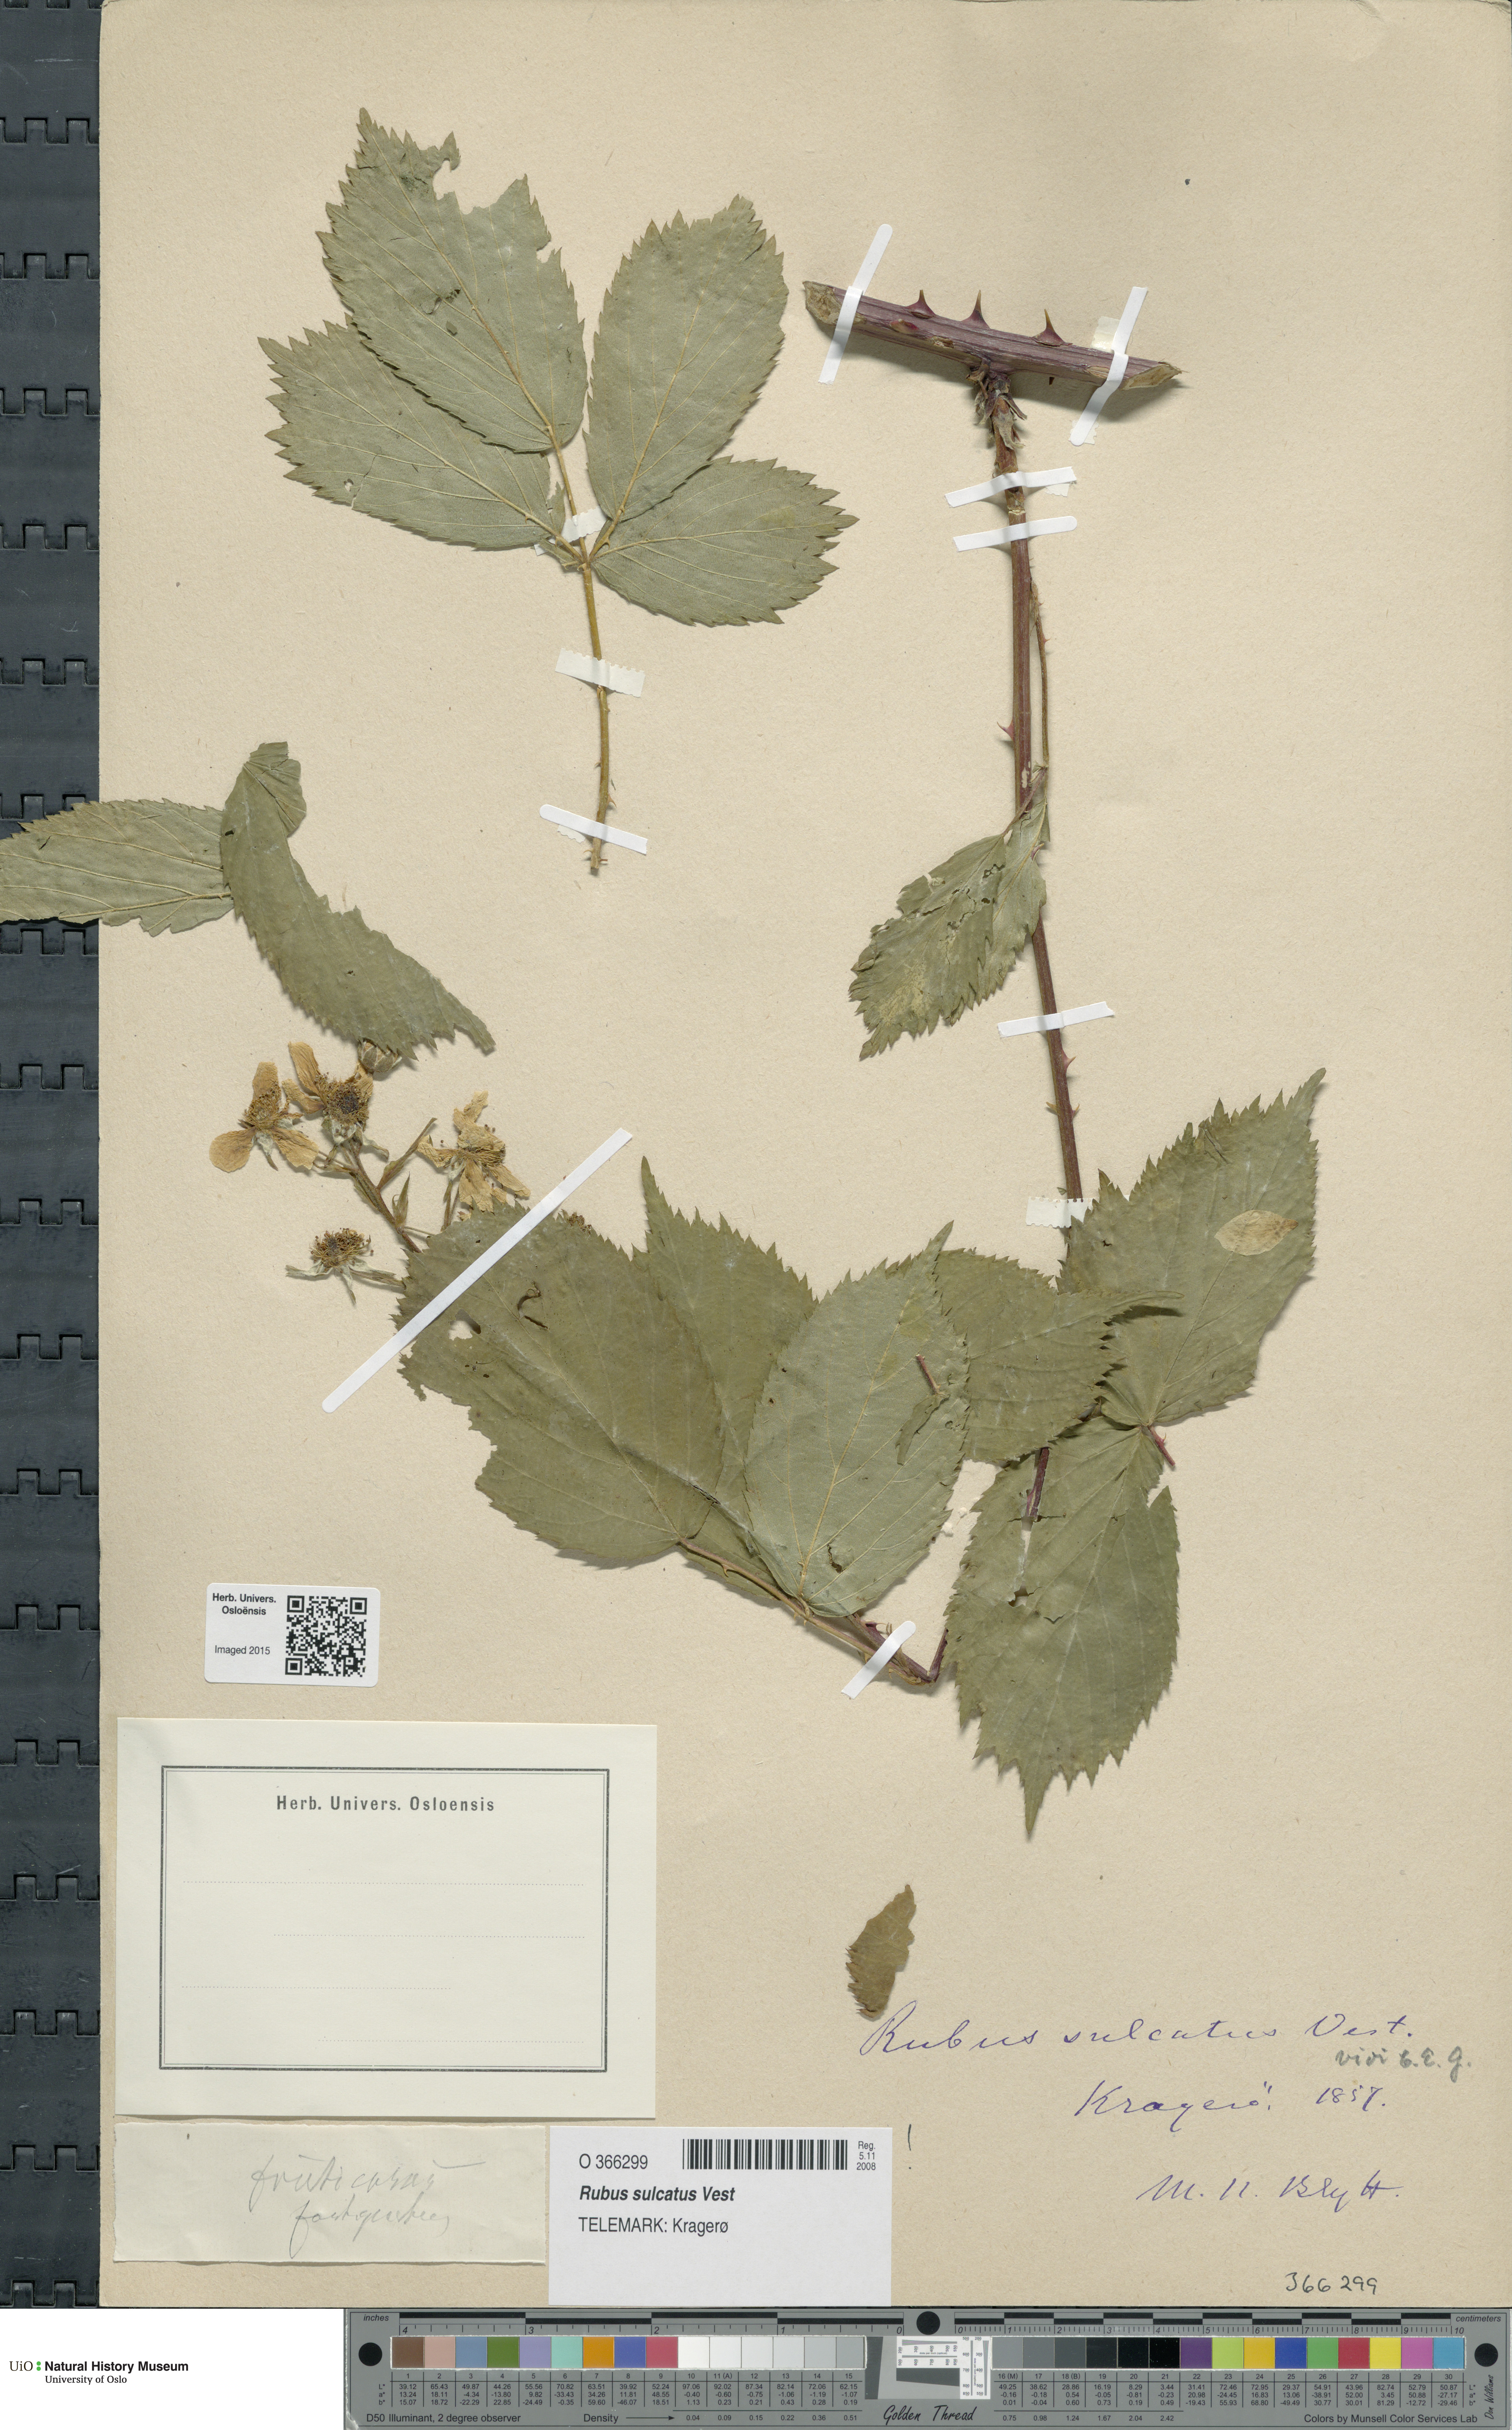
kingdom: Plantae
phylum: Tracheophyta
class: Magnoliopsida
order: Rosales
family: Rosaceae
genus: Rubus
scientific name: Rubus sulcatus
